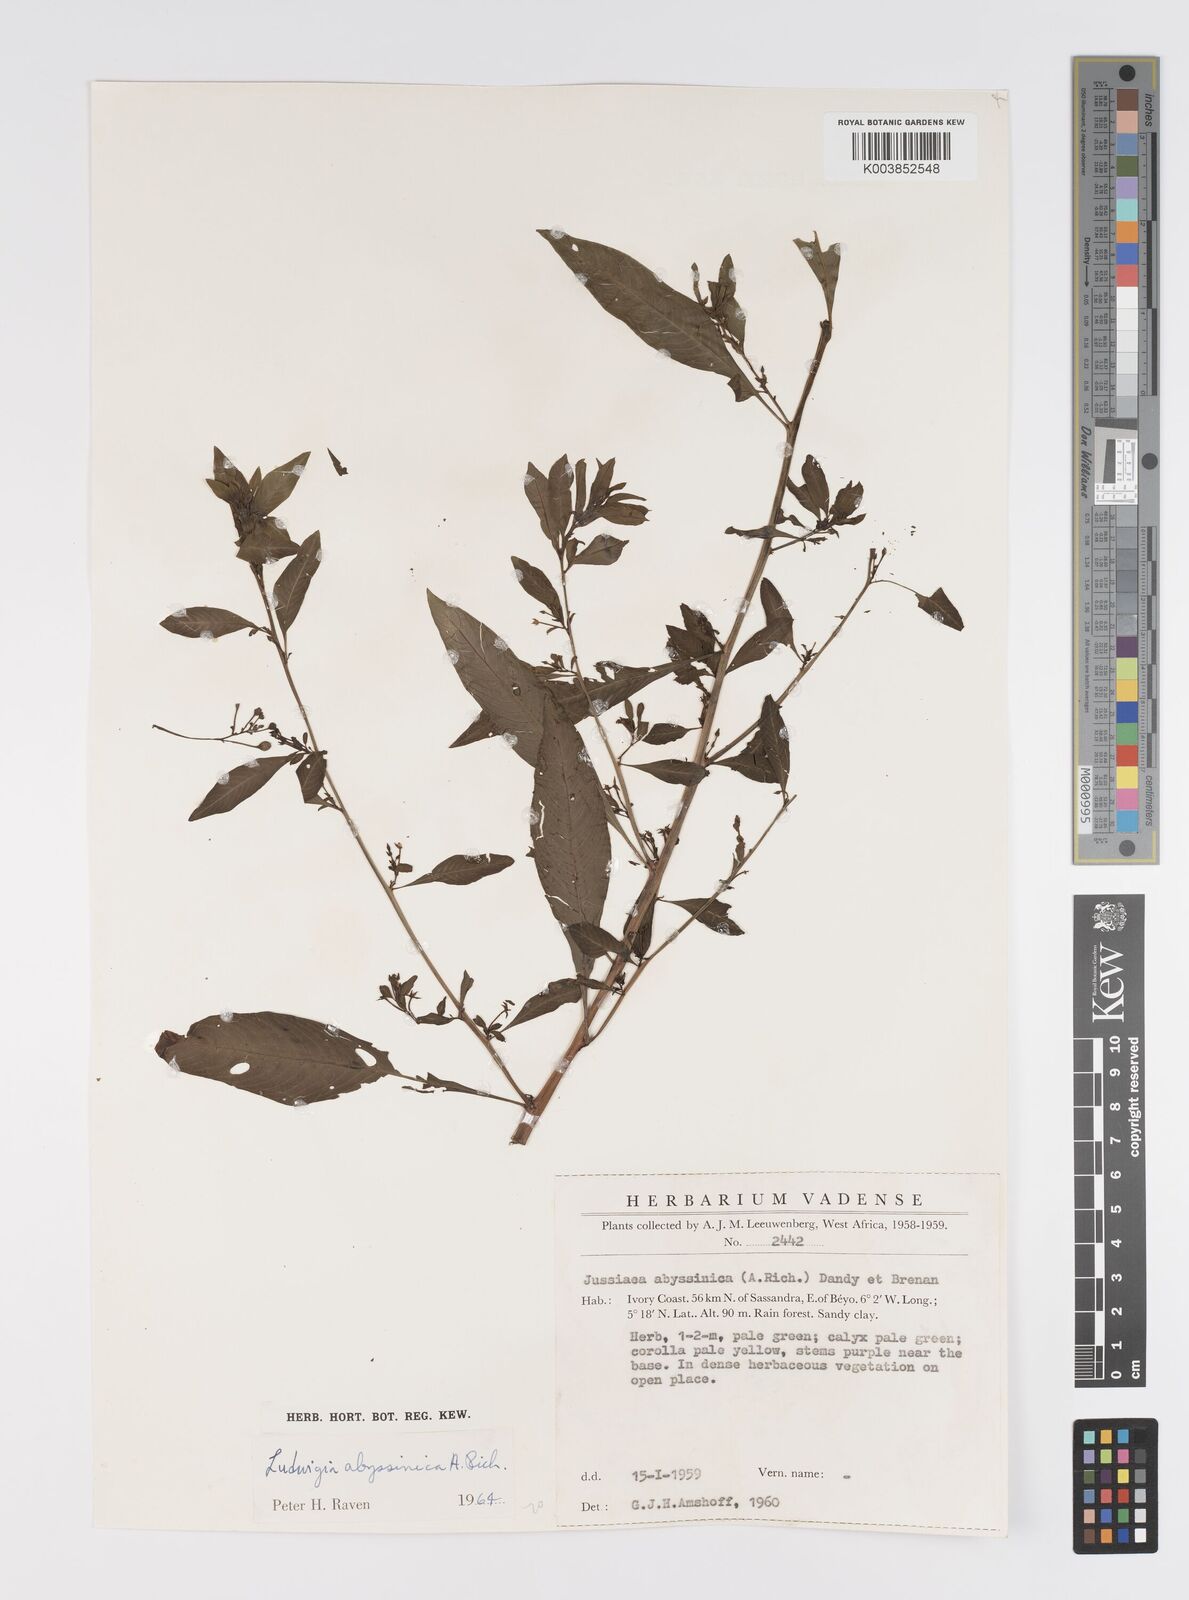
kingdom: Plantae
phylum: Tracheophyta
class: Magnoliopsida
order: Myrtales
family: Onagraceae
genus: Ludwigia
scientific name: Ludwigia abyssinica
